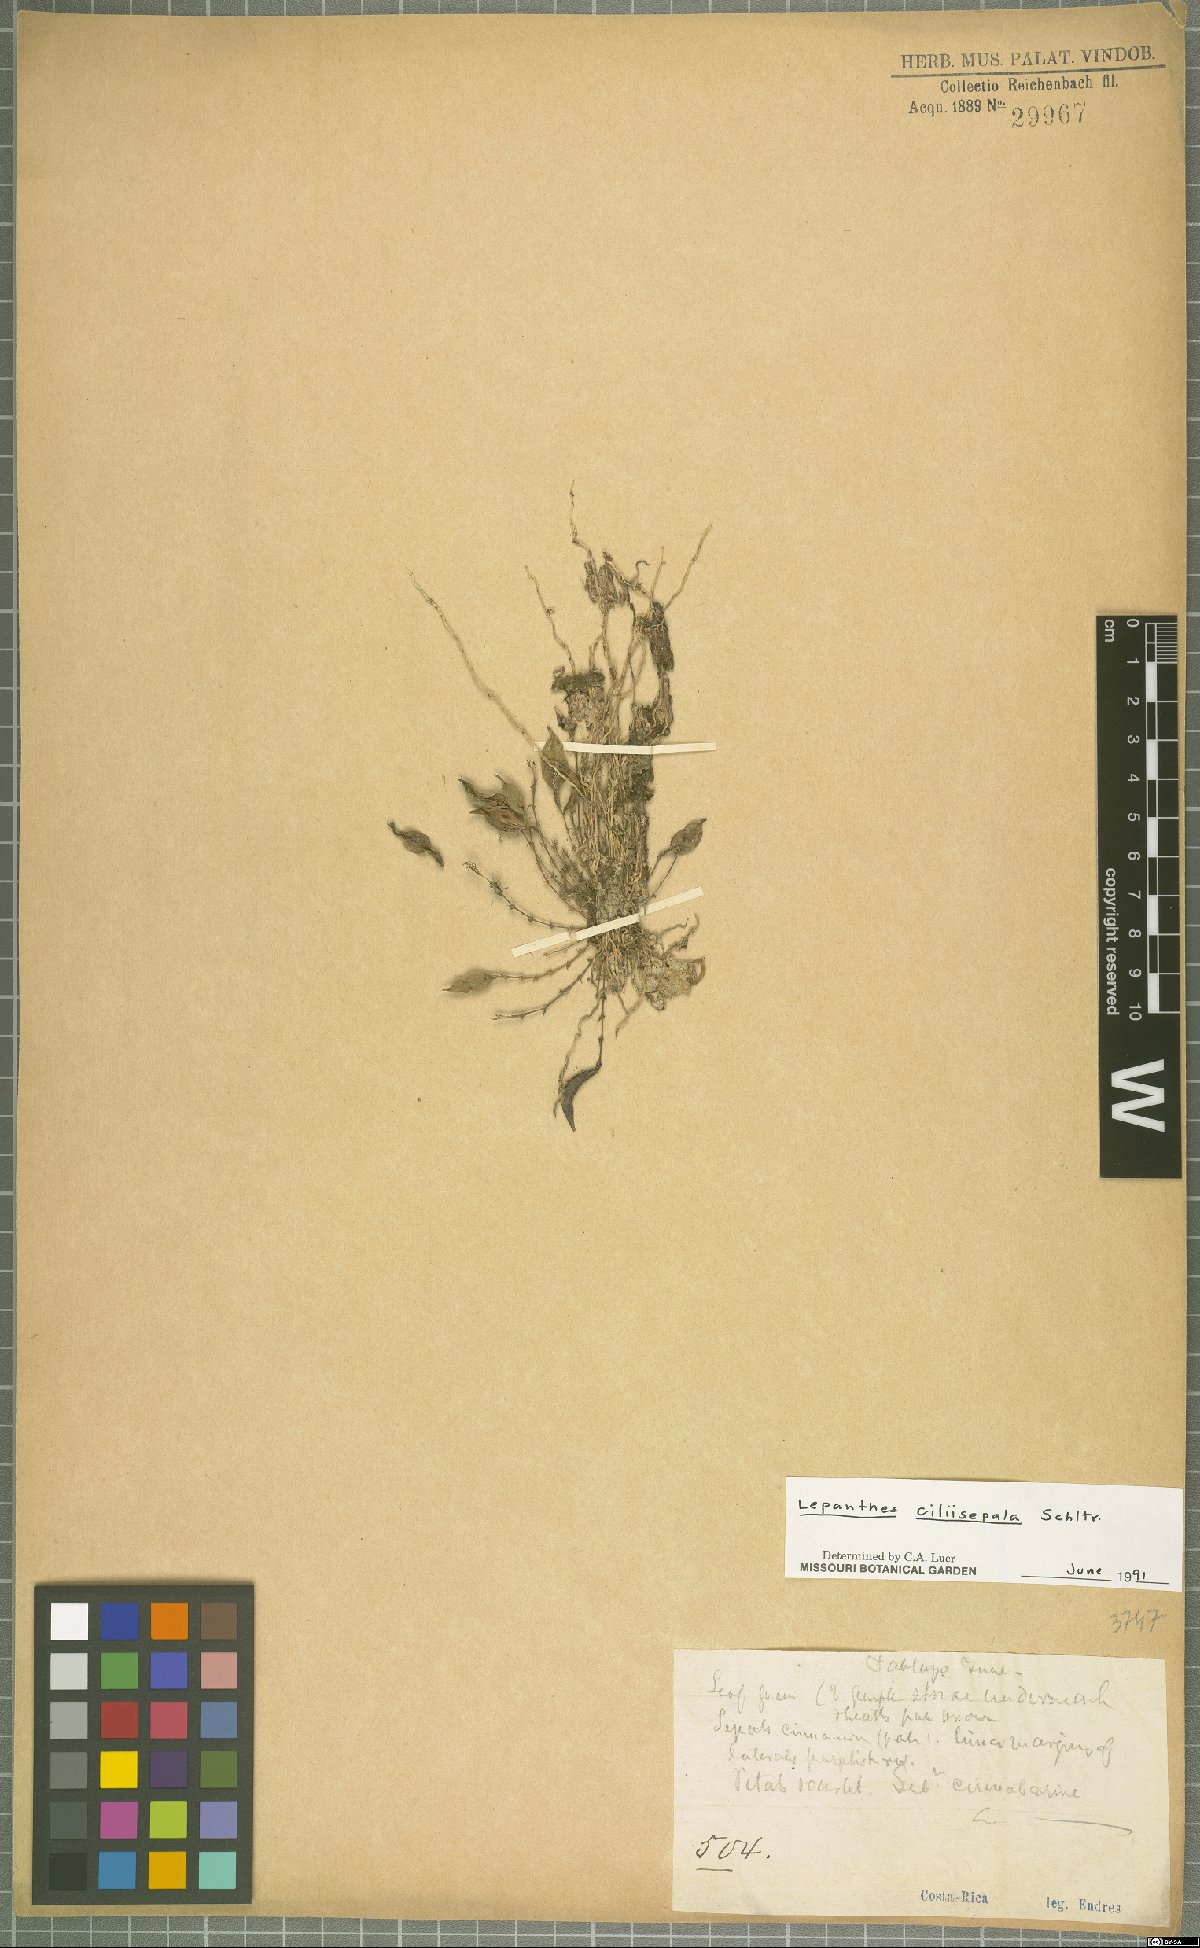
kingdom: Plantae
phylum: Tracheophyta
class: Liliopsida
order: Asparagales
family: Orchidaceae
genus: Lepanthes
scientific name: Lepanthes ciliisepala
